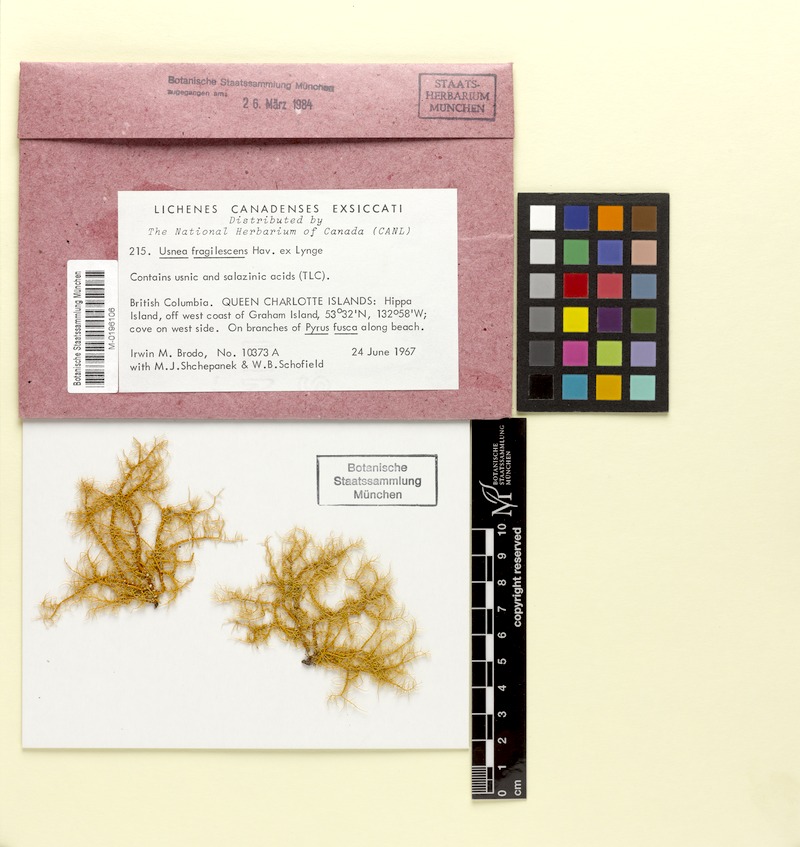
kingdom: Fungi
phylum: Ascomycota
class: Lecanoromycetes
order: Lecanorales
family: Parmeliaceae
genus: Usnea
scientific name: Usnea fragilescens
